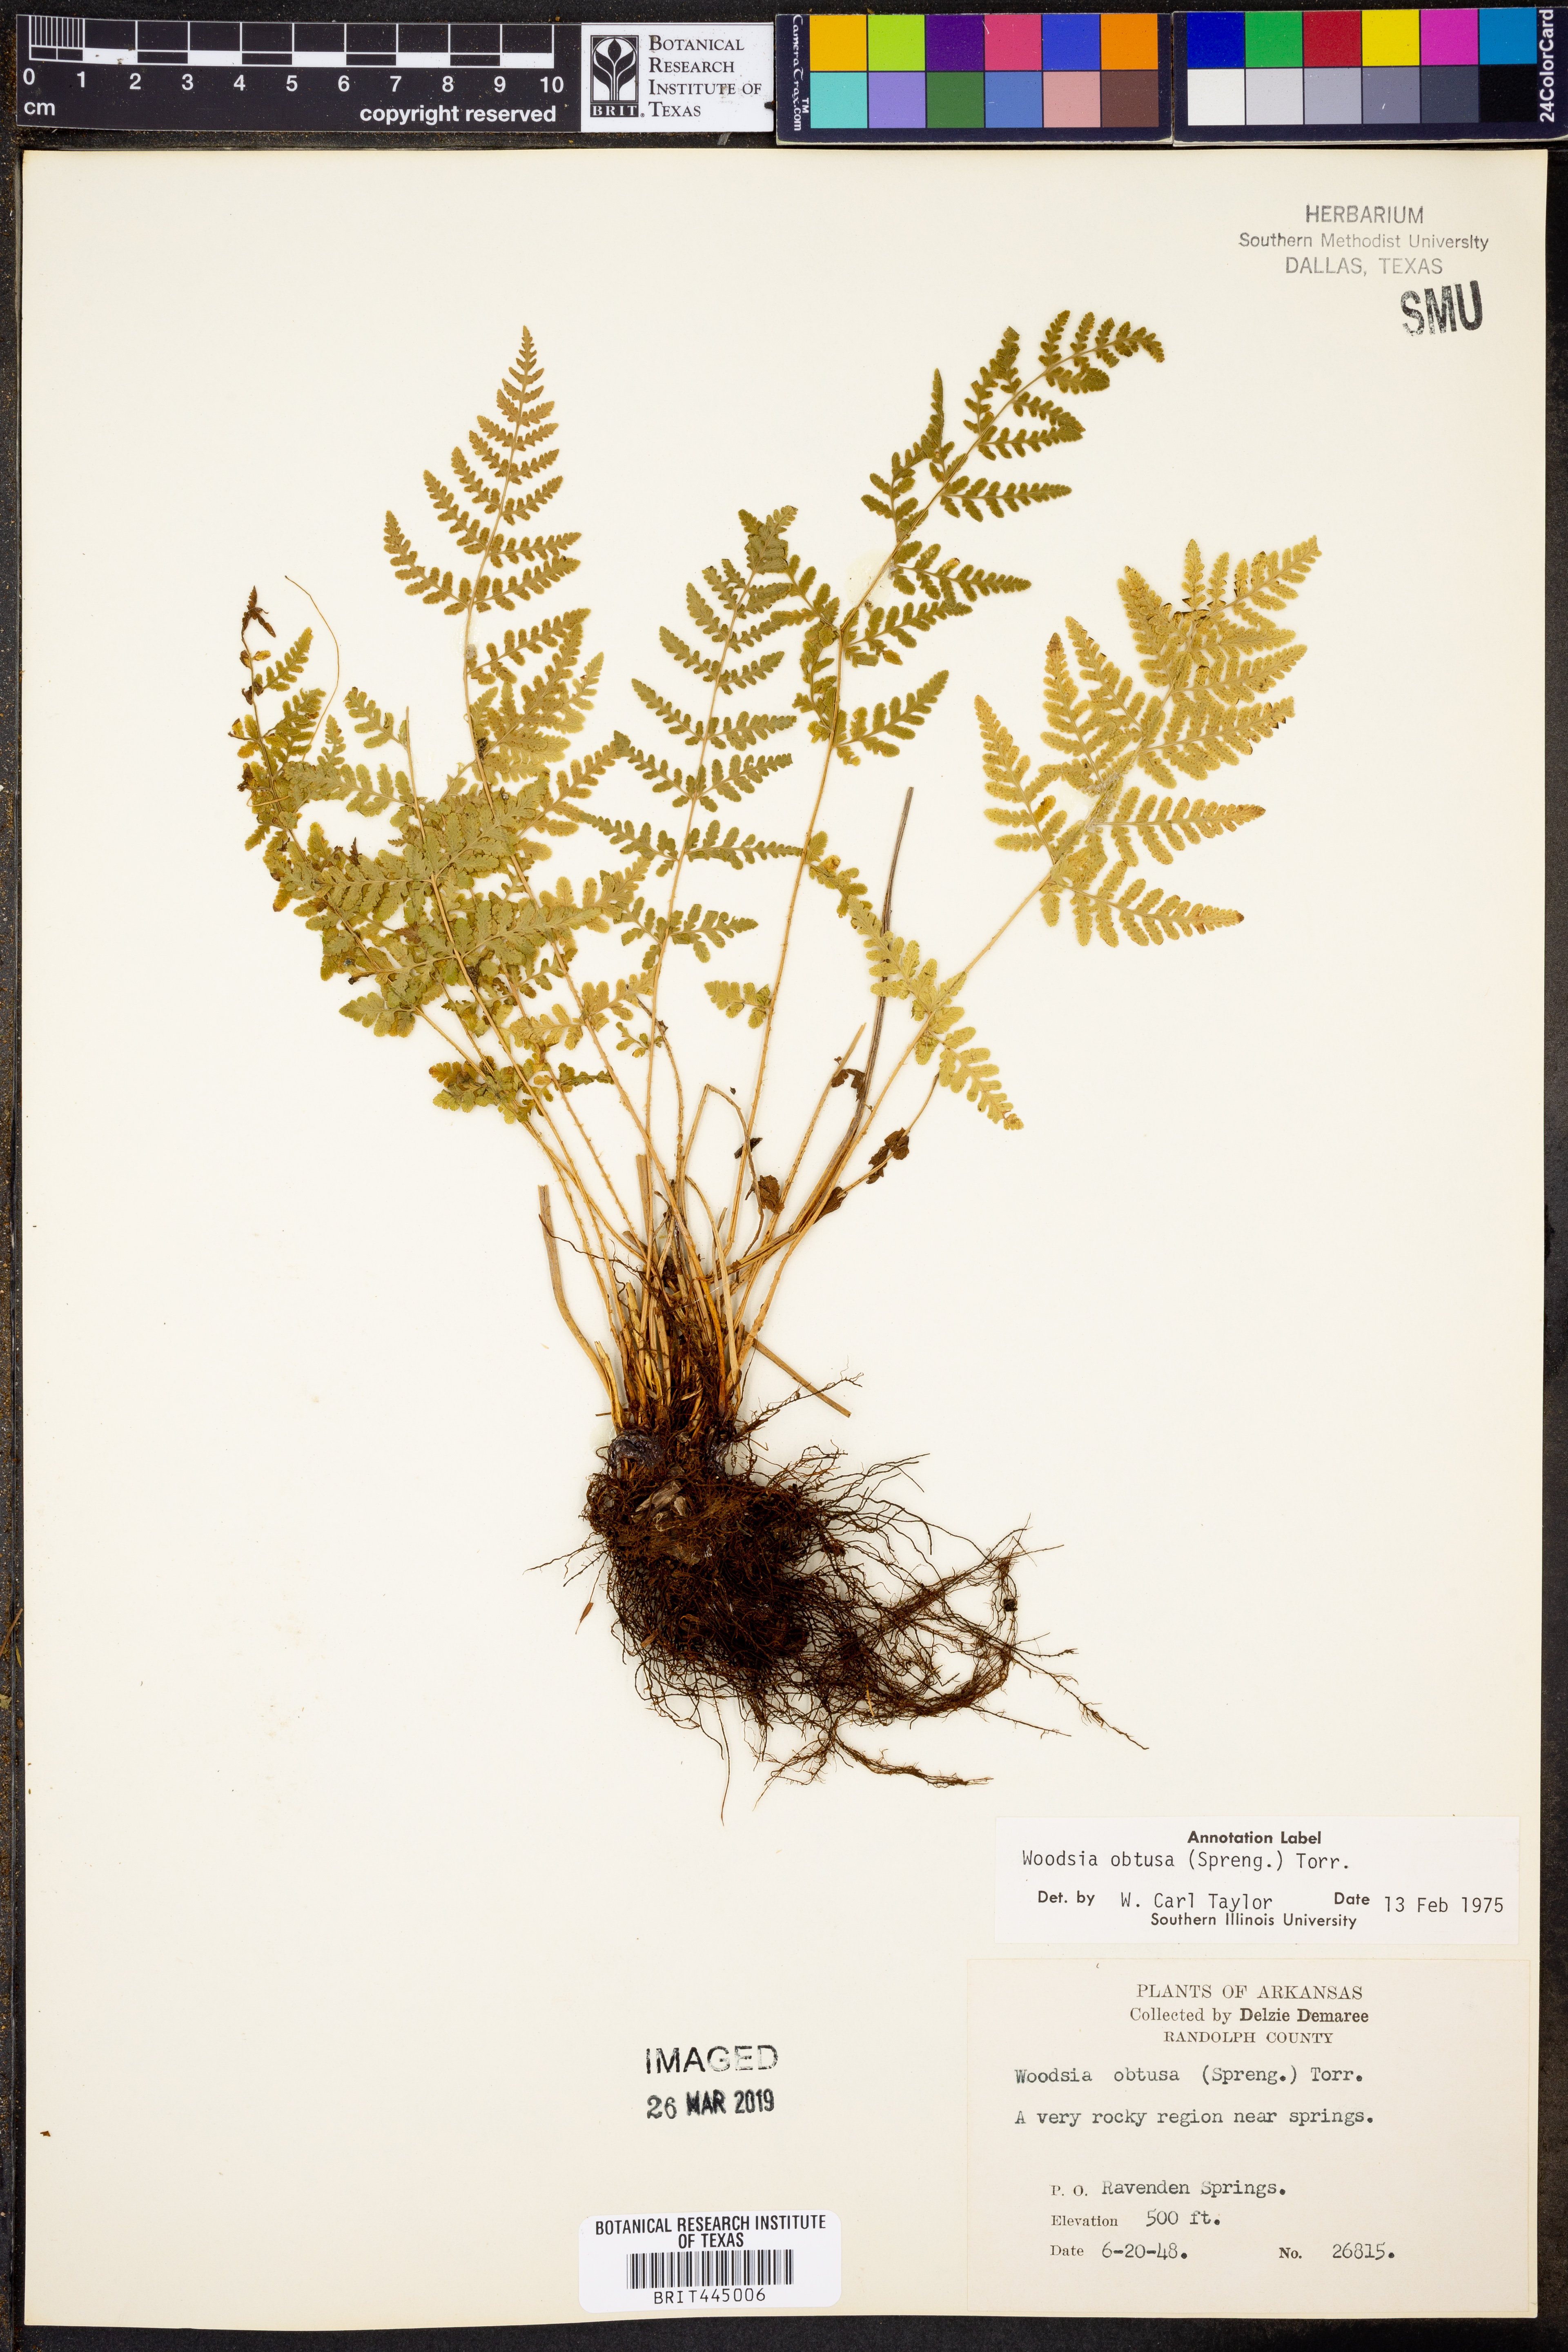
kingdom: Plantae
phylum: Tracheophyta
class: Polypodiopsida
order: Polypodiales
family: Woodsiaceae
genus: Physematium
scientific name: Physematium obtusum
